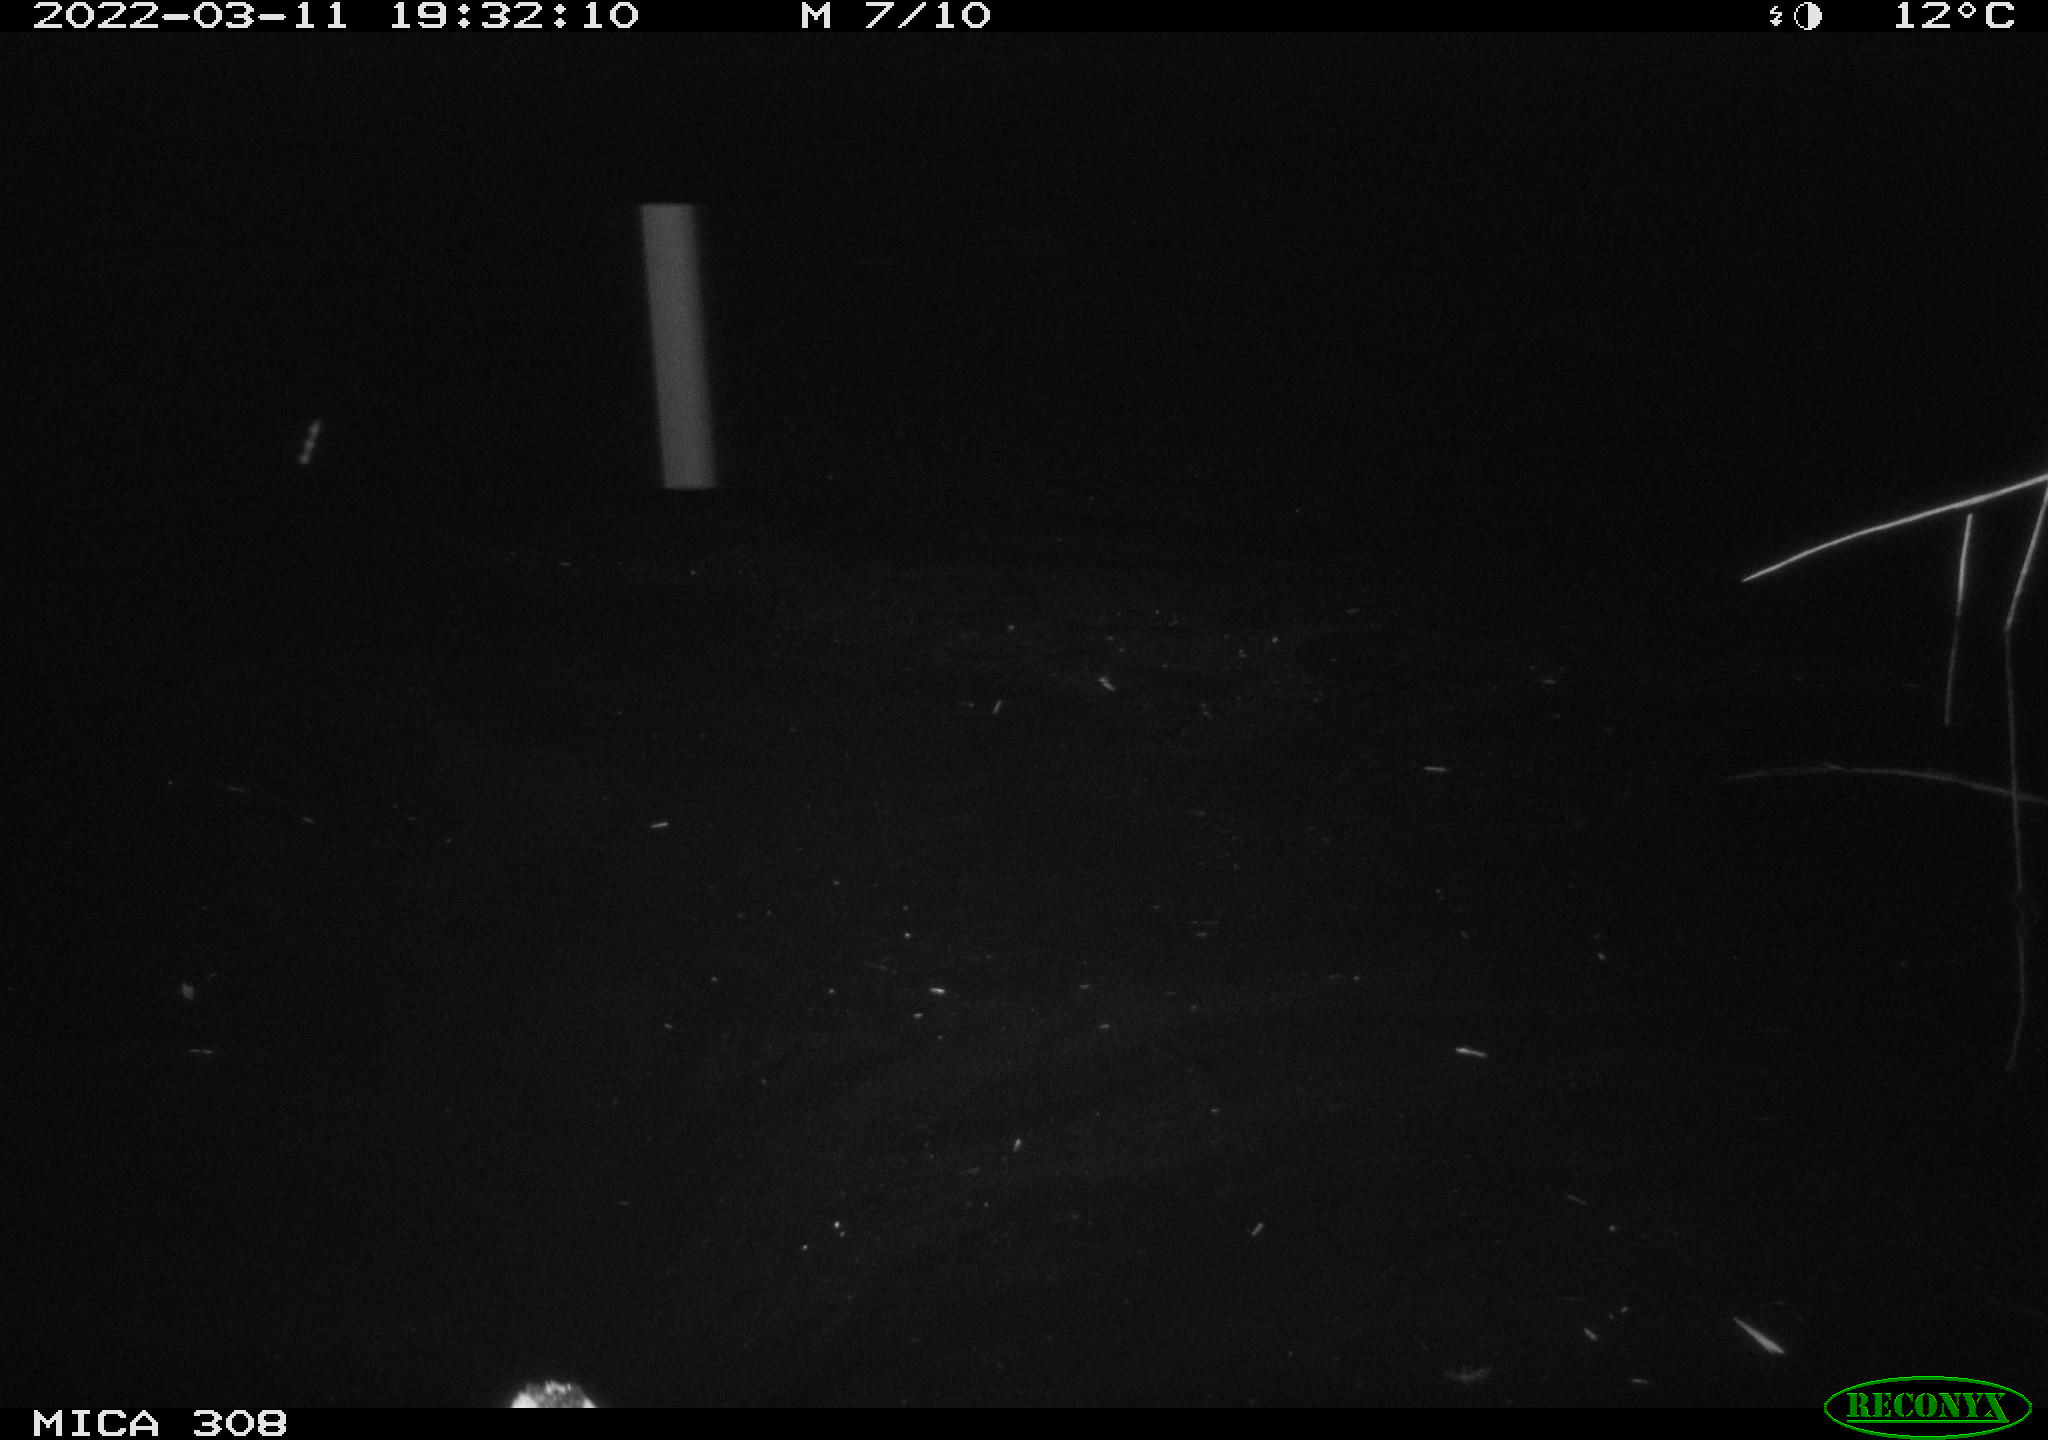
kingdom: Animalia
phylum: Chordata
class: Aves
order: Anseriformes
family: Anatidae
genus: Anas
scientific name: Anas platyrhynchos
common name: Mallard
